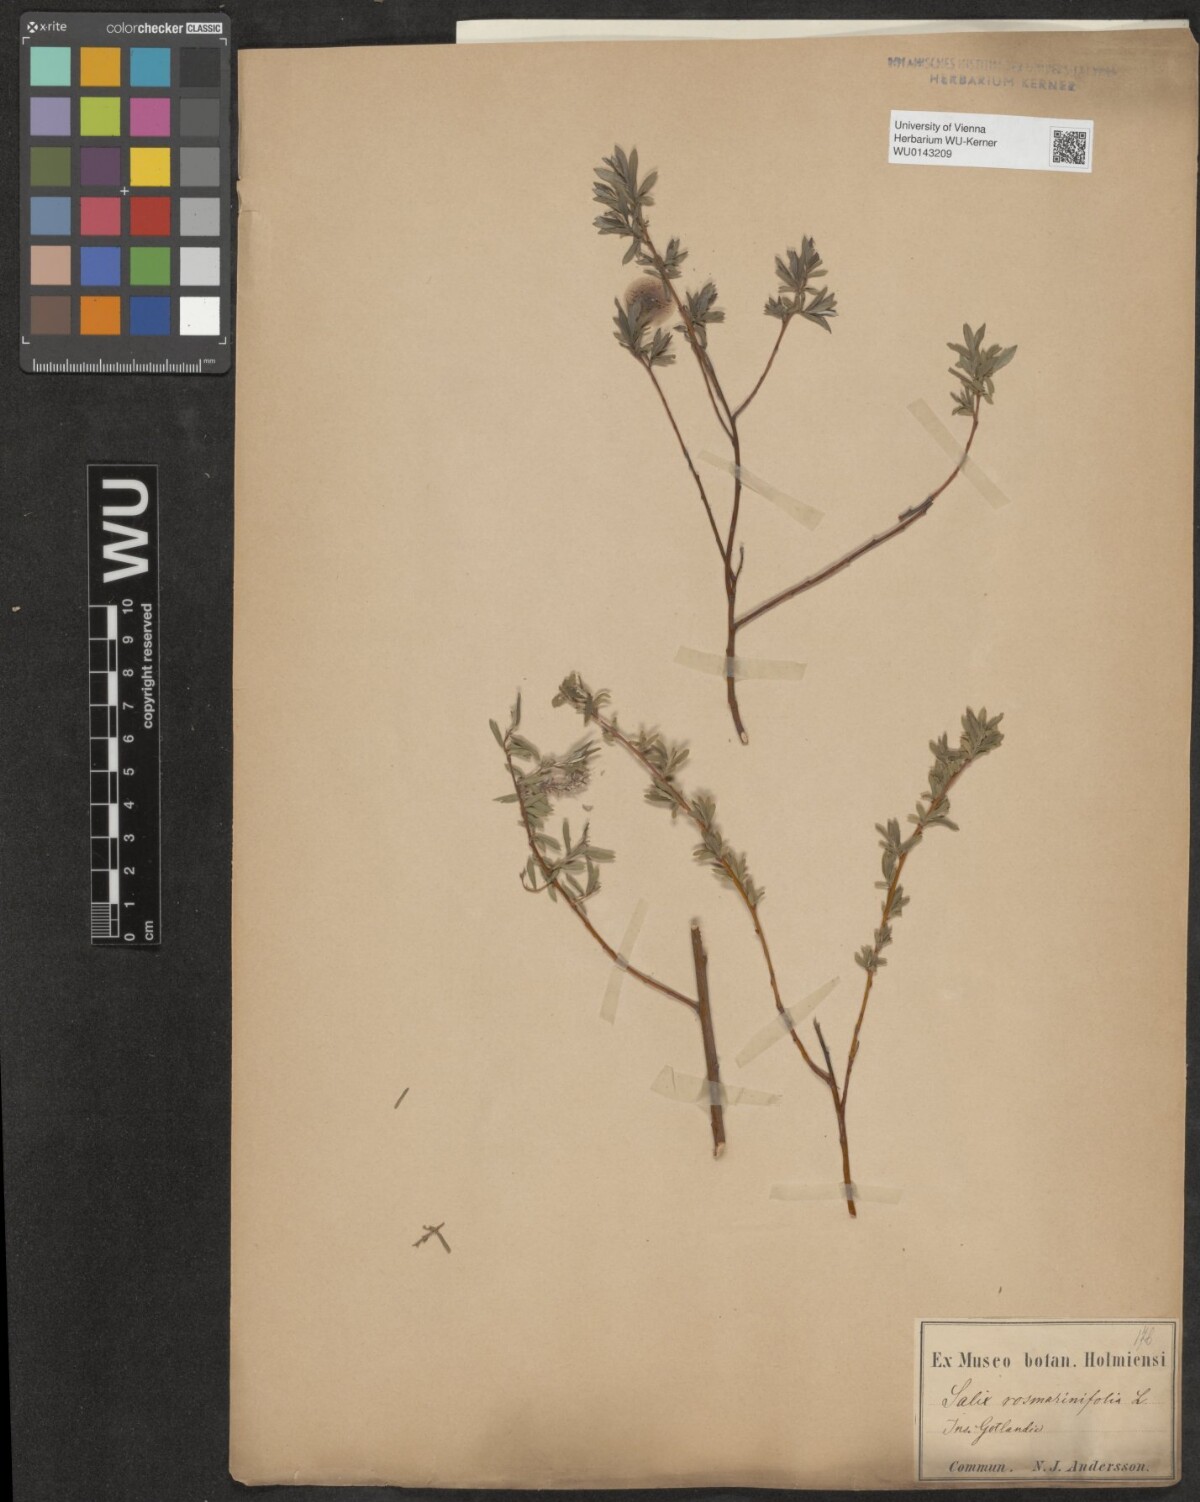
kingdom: Plantae
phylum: Tracheophyta
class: Magnoliopsida
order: Malpighiales
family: Salicaceae
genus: Salix
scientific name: Salix repens
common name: Creeping willow
